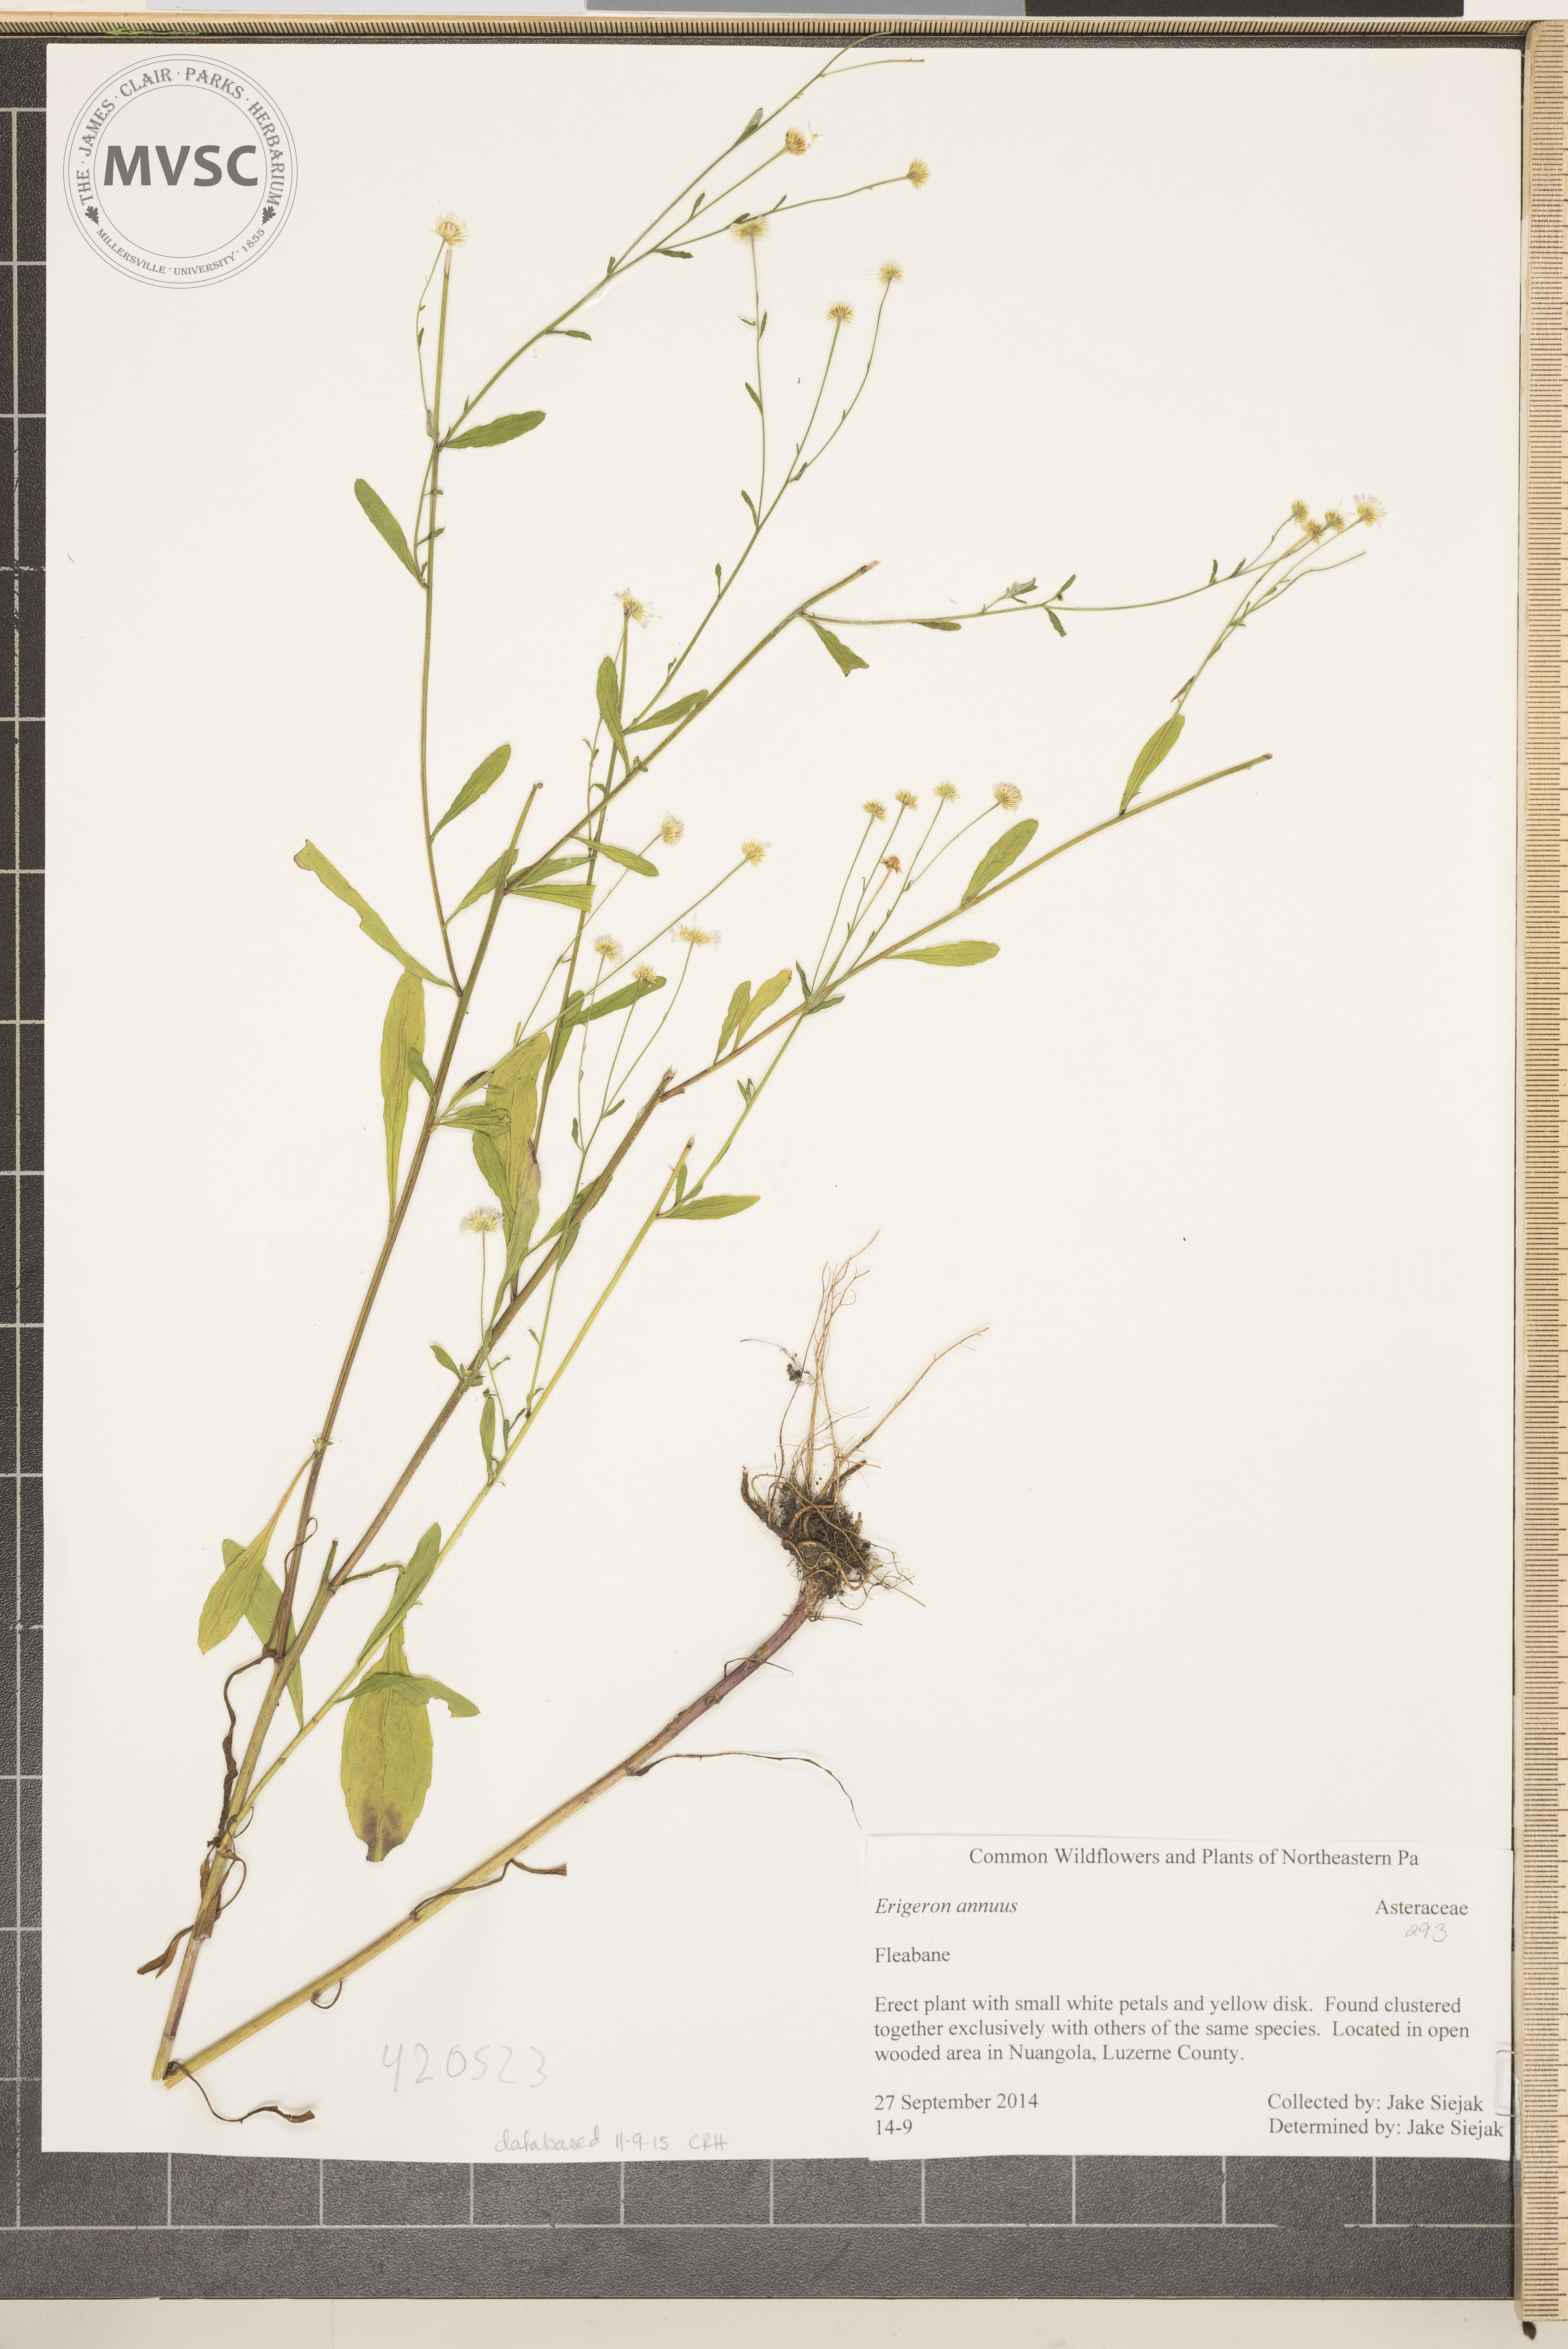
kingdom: Plantae
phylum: Tracheophyta
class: Magnoliopsida
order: Asterales
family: Asteraceae
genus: Erigeron
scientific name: Erigeron annuus
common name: Fleabane
